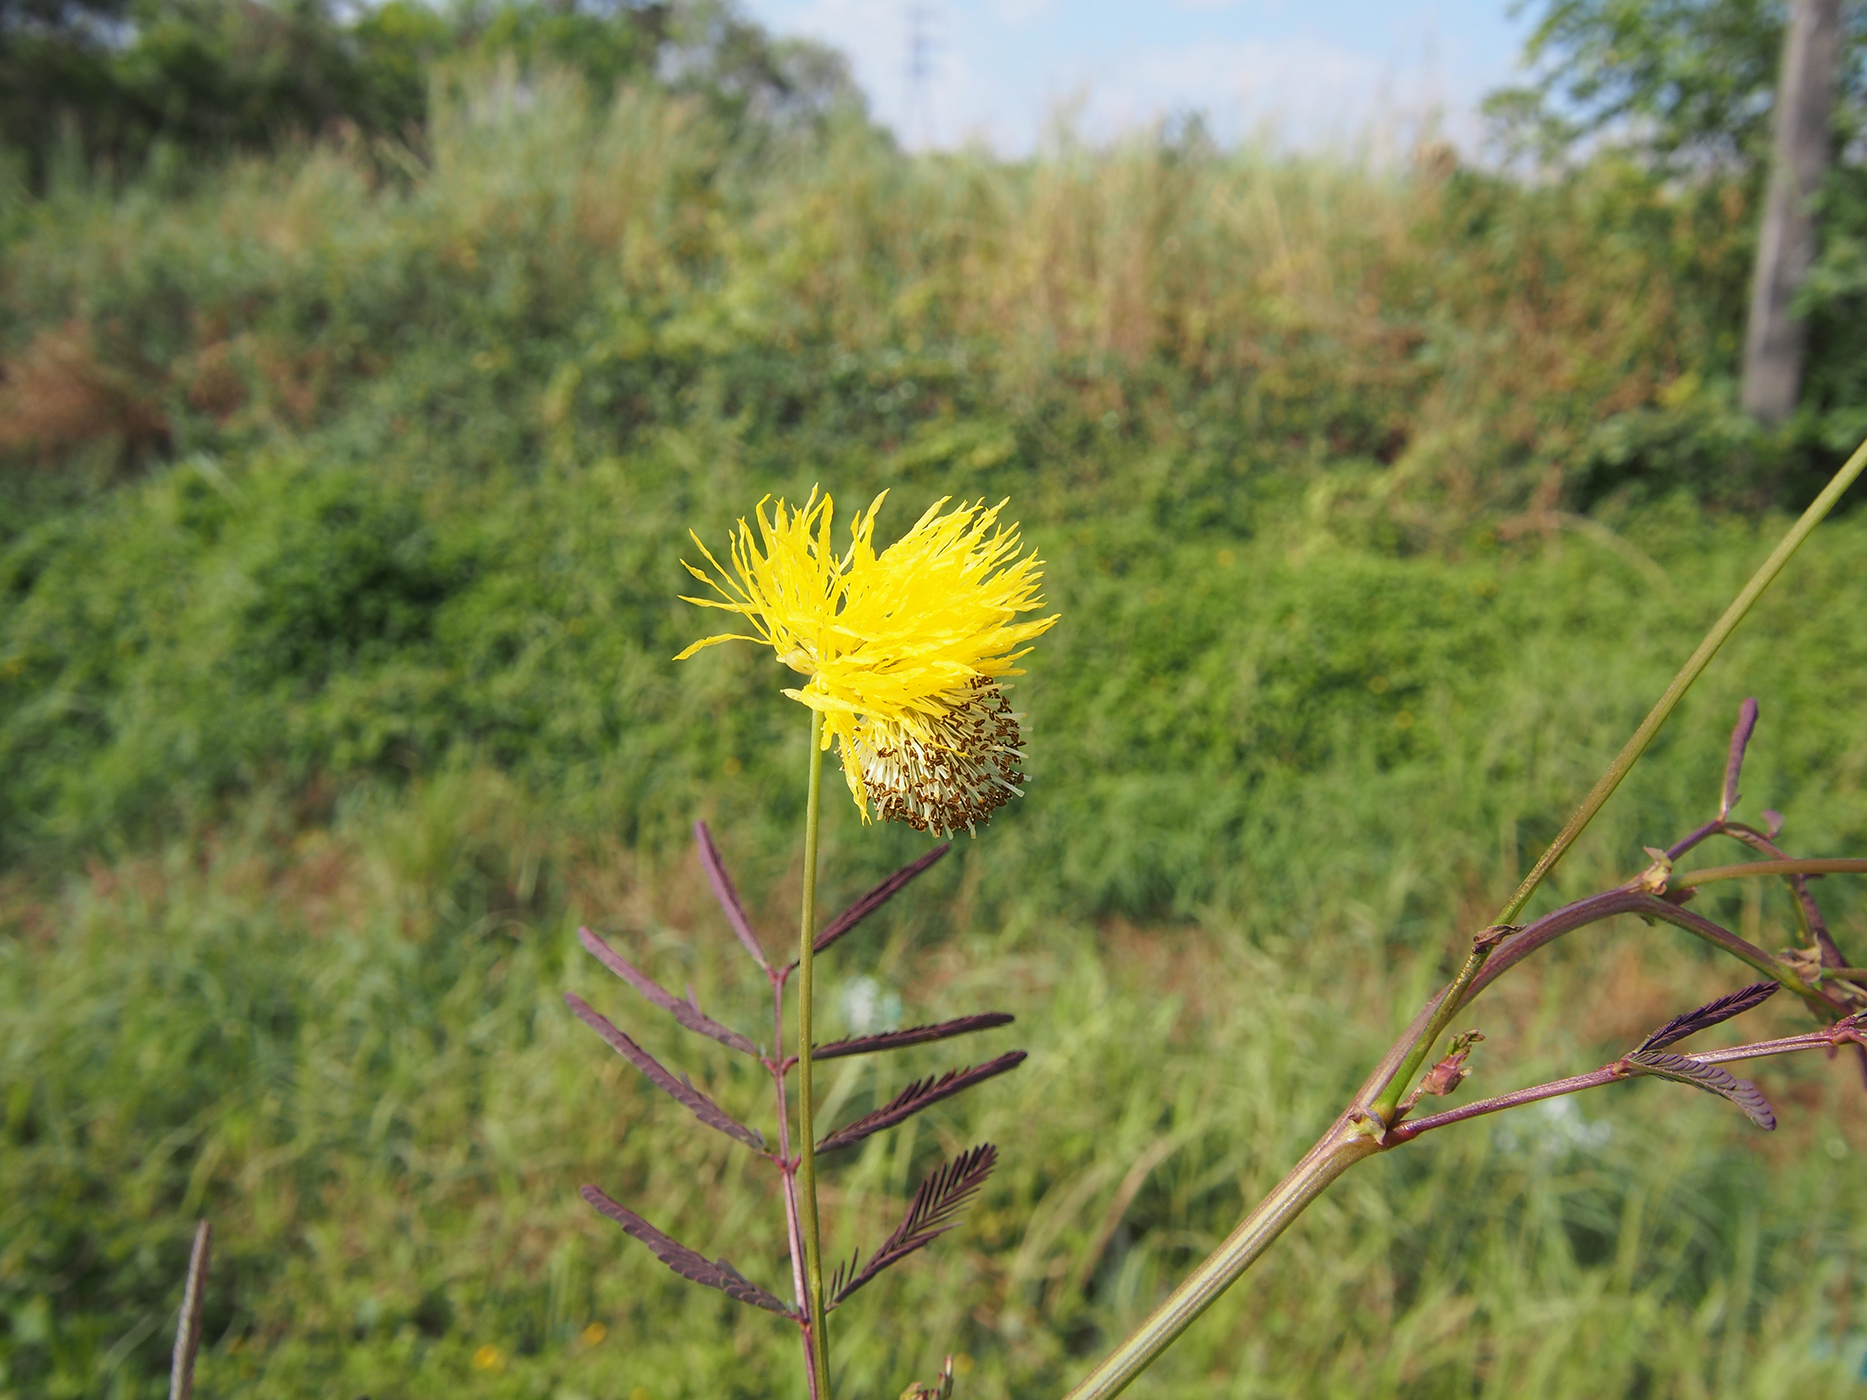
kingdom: Plantae
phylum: Tracheophyta
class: Magnoliopsida
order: Fabales
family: Fabaceae
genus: Neptunia
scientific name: Neptunia javanica
